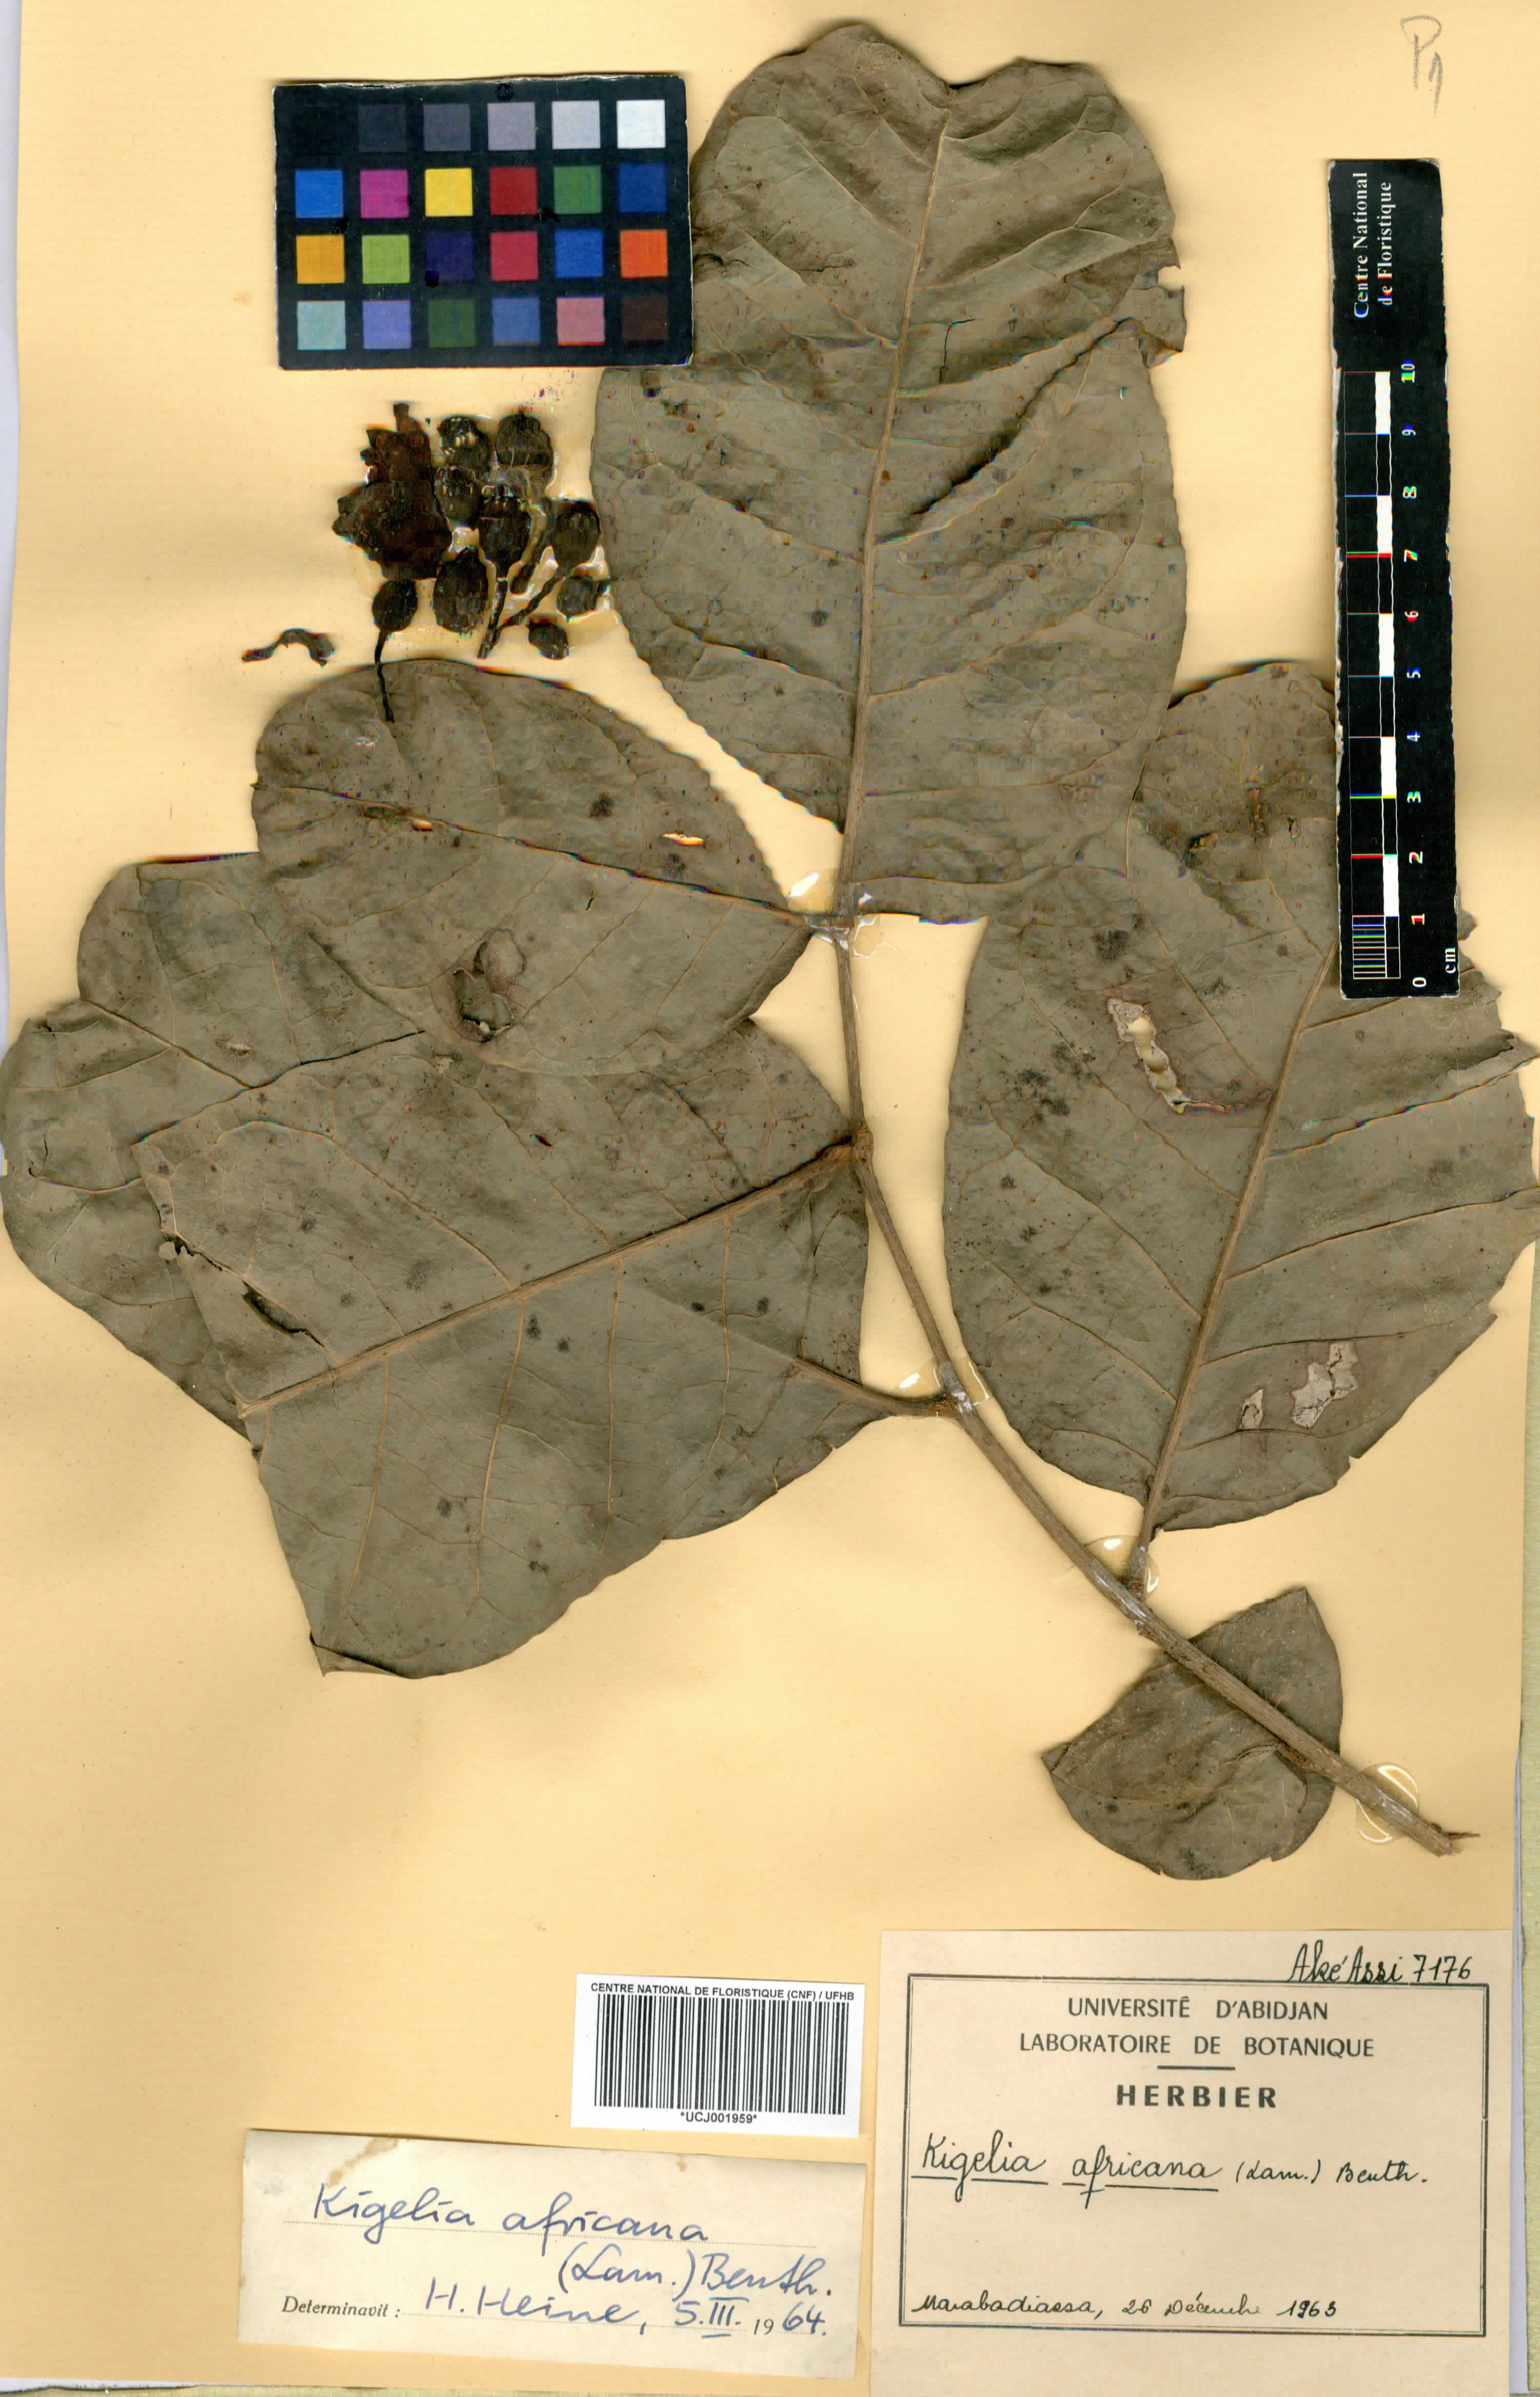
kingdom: Plantae
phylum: Tracheophyta
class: Magnoliopsida
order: Lamiales
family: Bignoniaceae
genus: Kigelia
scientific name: Kigelia africana
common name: Sausage tree
